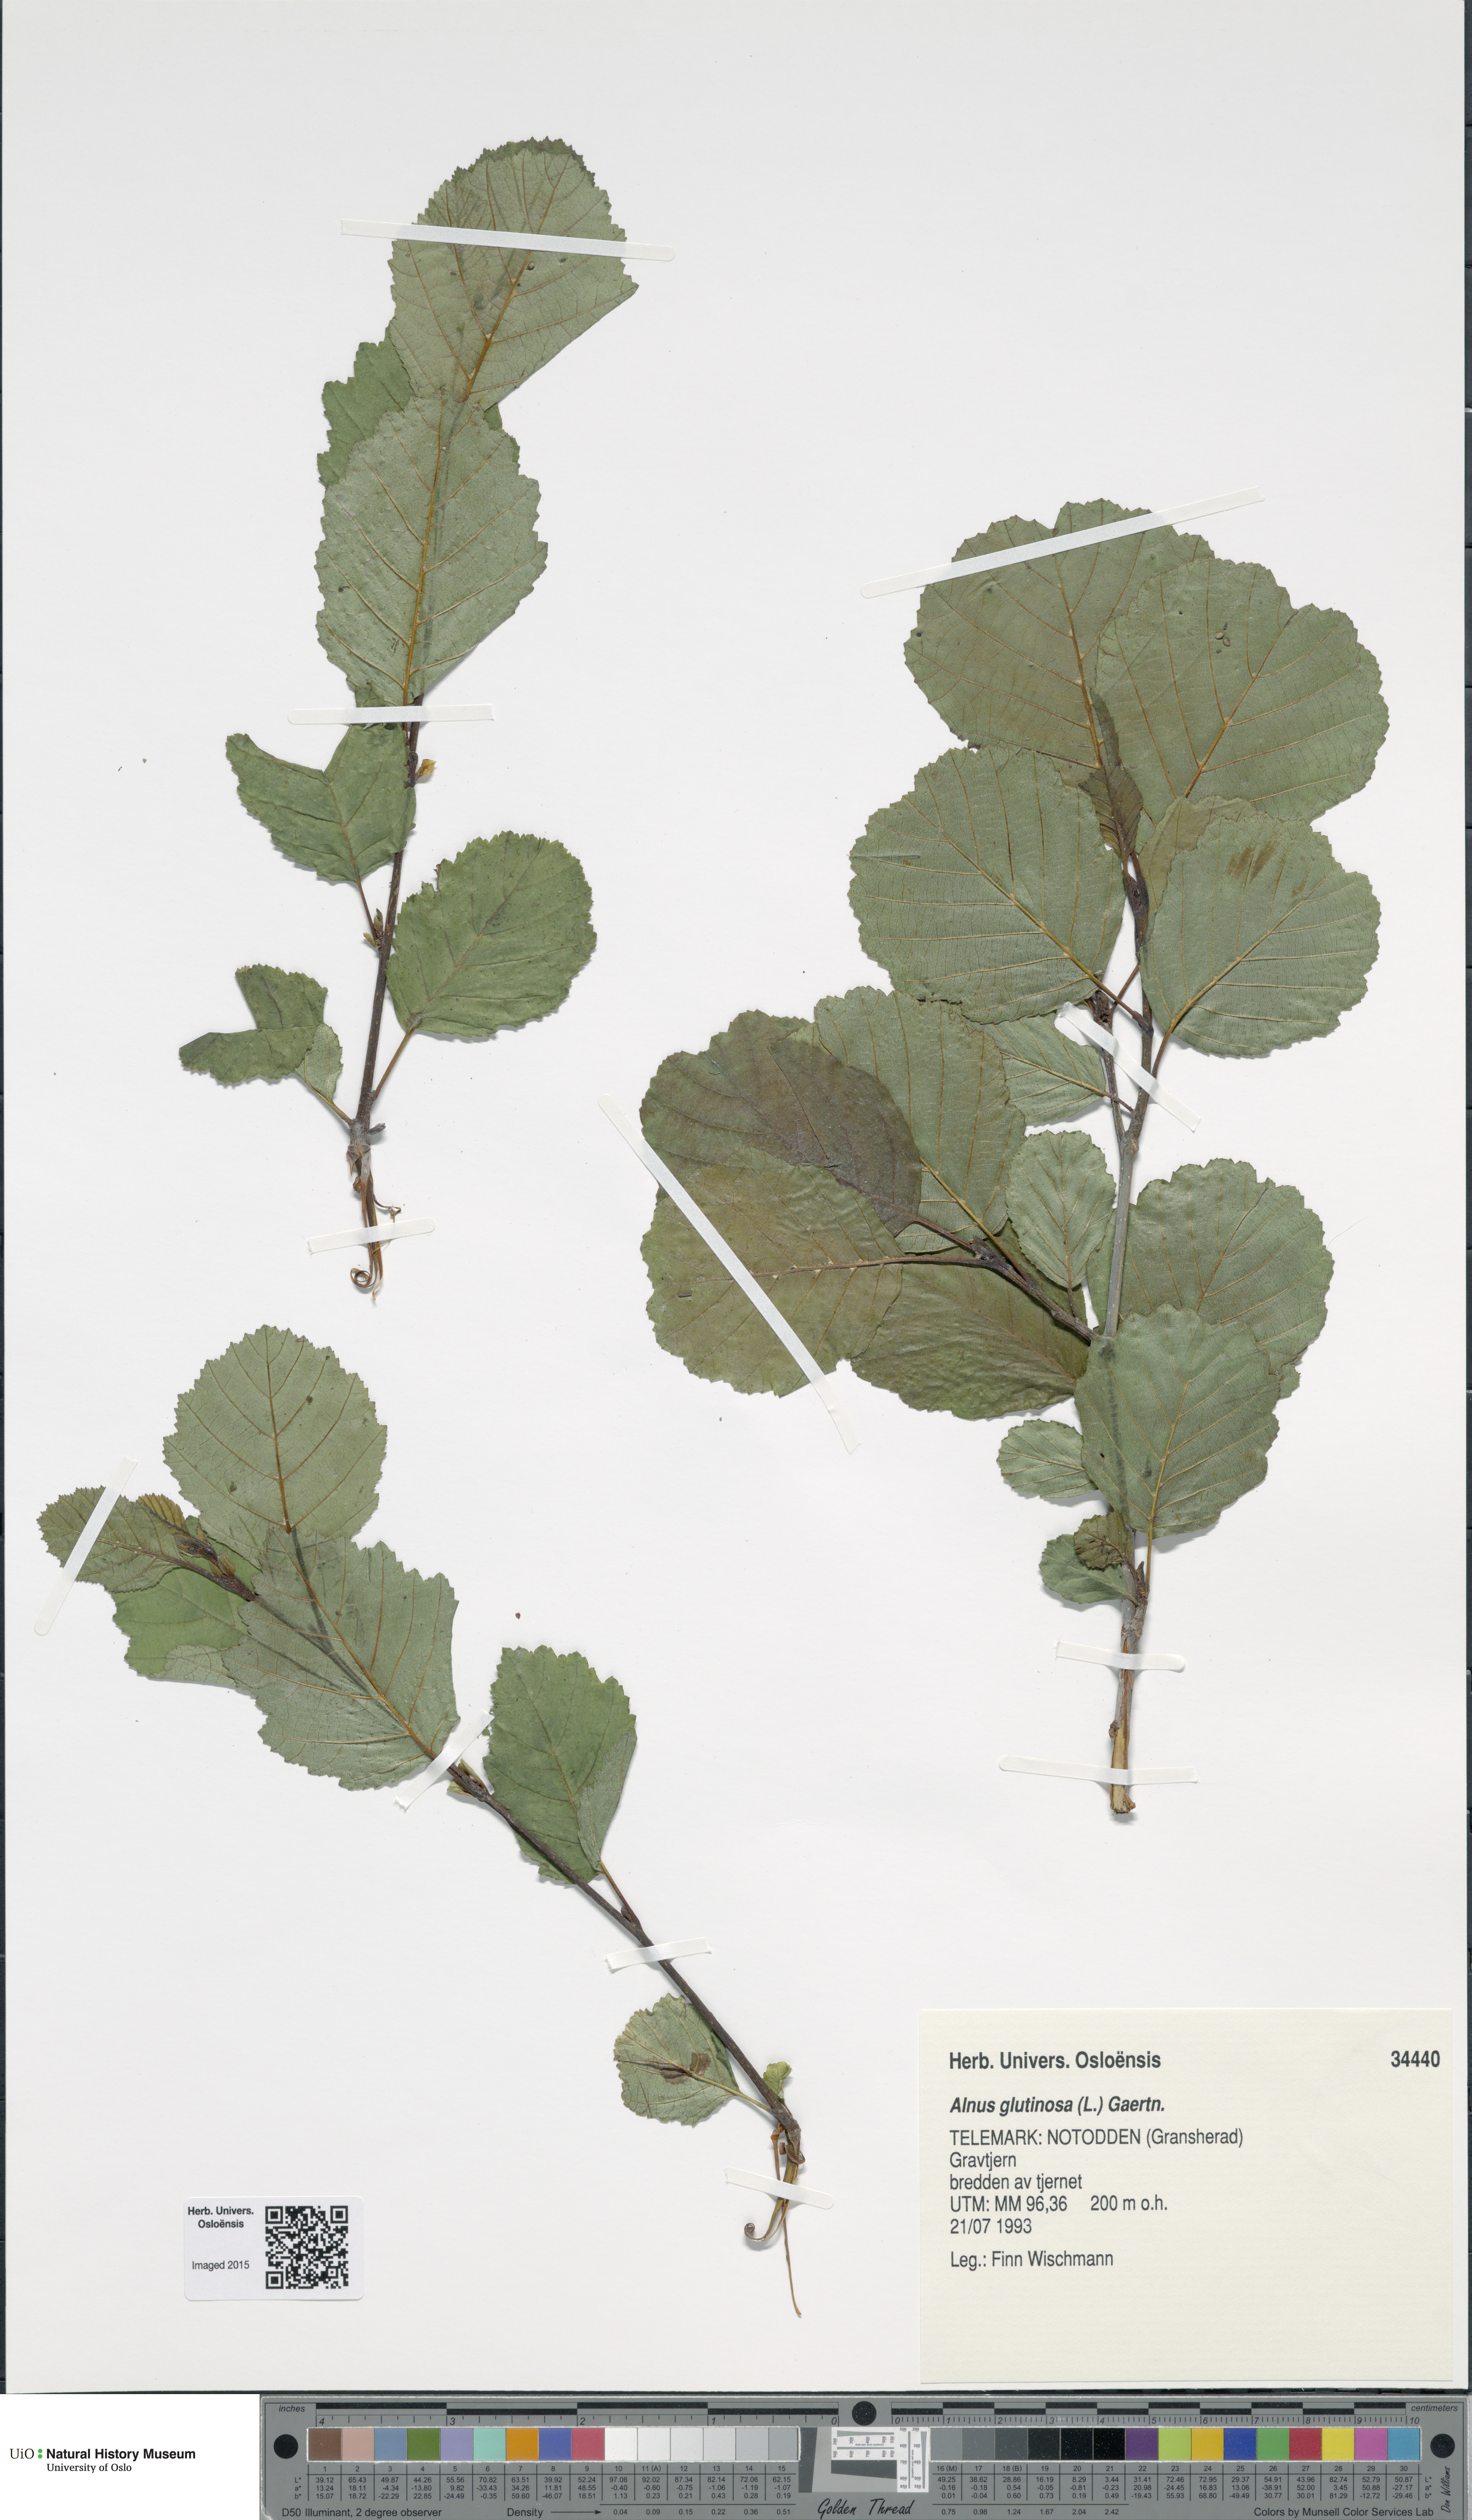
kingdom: Plantae
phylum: Tracheophyta
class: Magnoliopsida
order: Fagales
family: Betulaceae
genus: Alnus
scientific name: Alnus glutinosa
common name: Black alder
